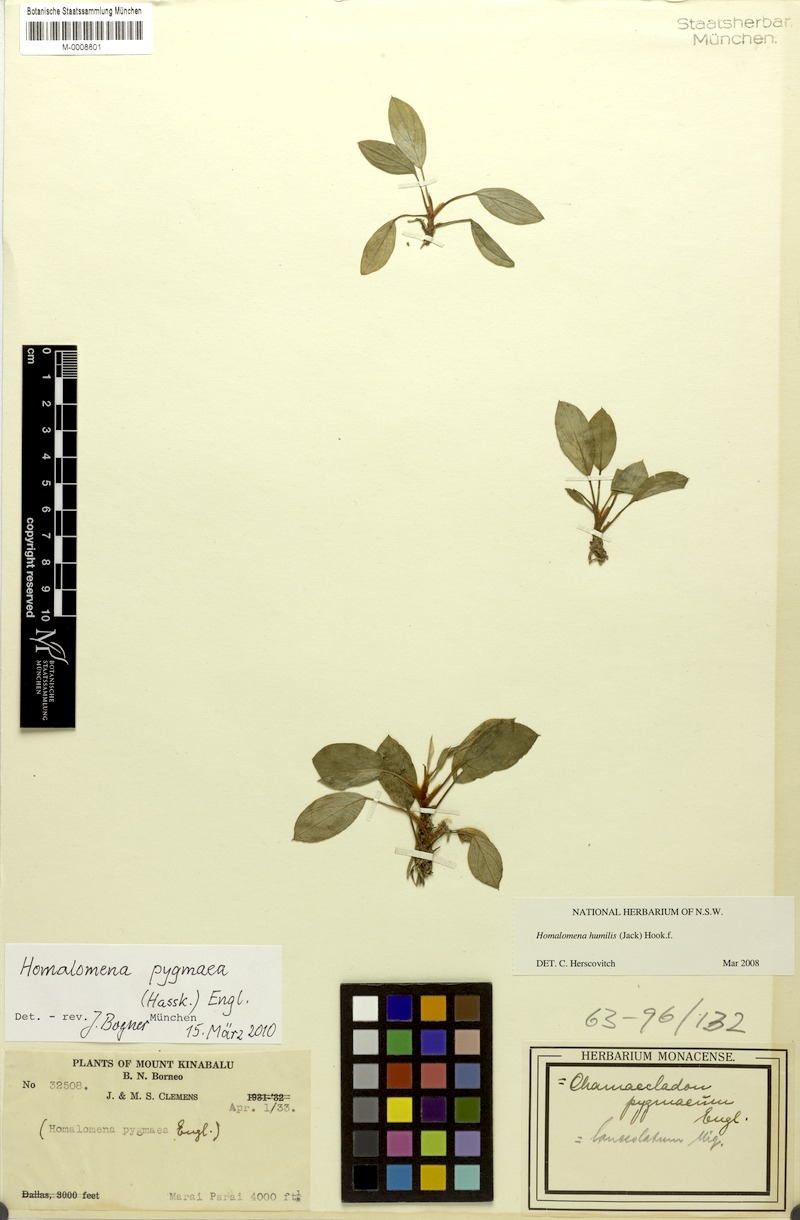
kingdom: Plantae
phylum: Tracheophyta
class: Liliopsida
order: Alismatales
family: Araceae
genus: Homalomena
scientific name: Homalomena humilis
